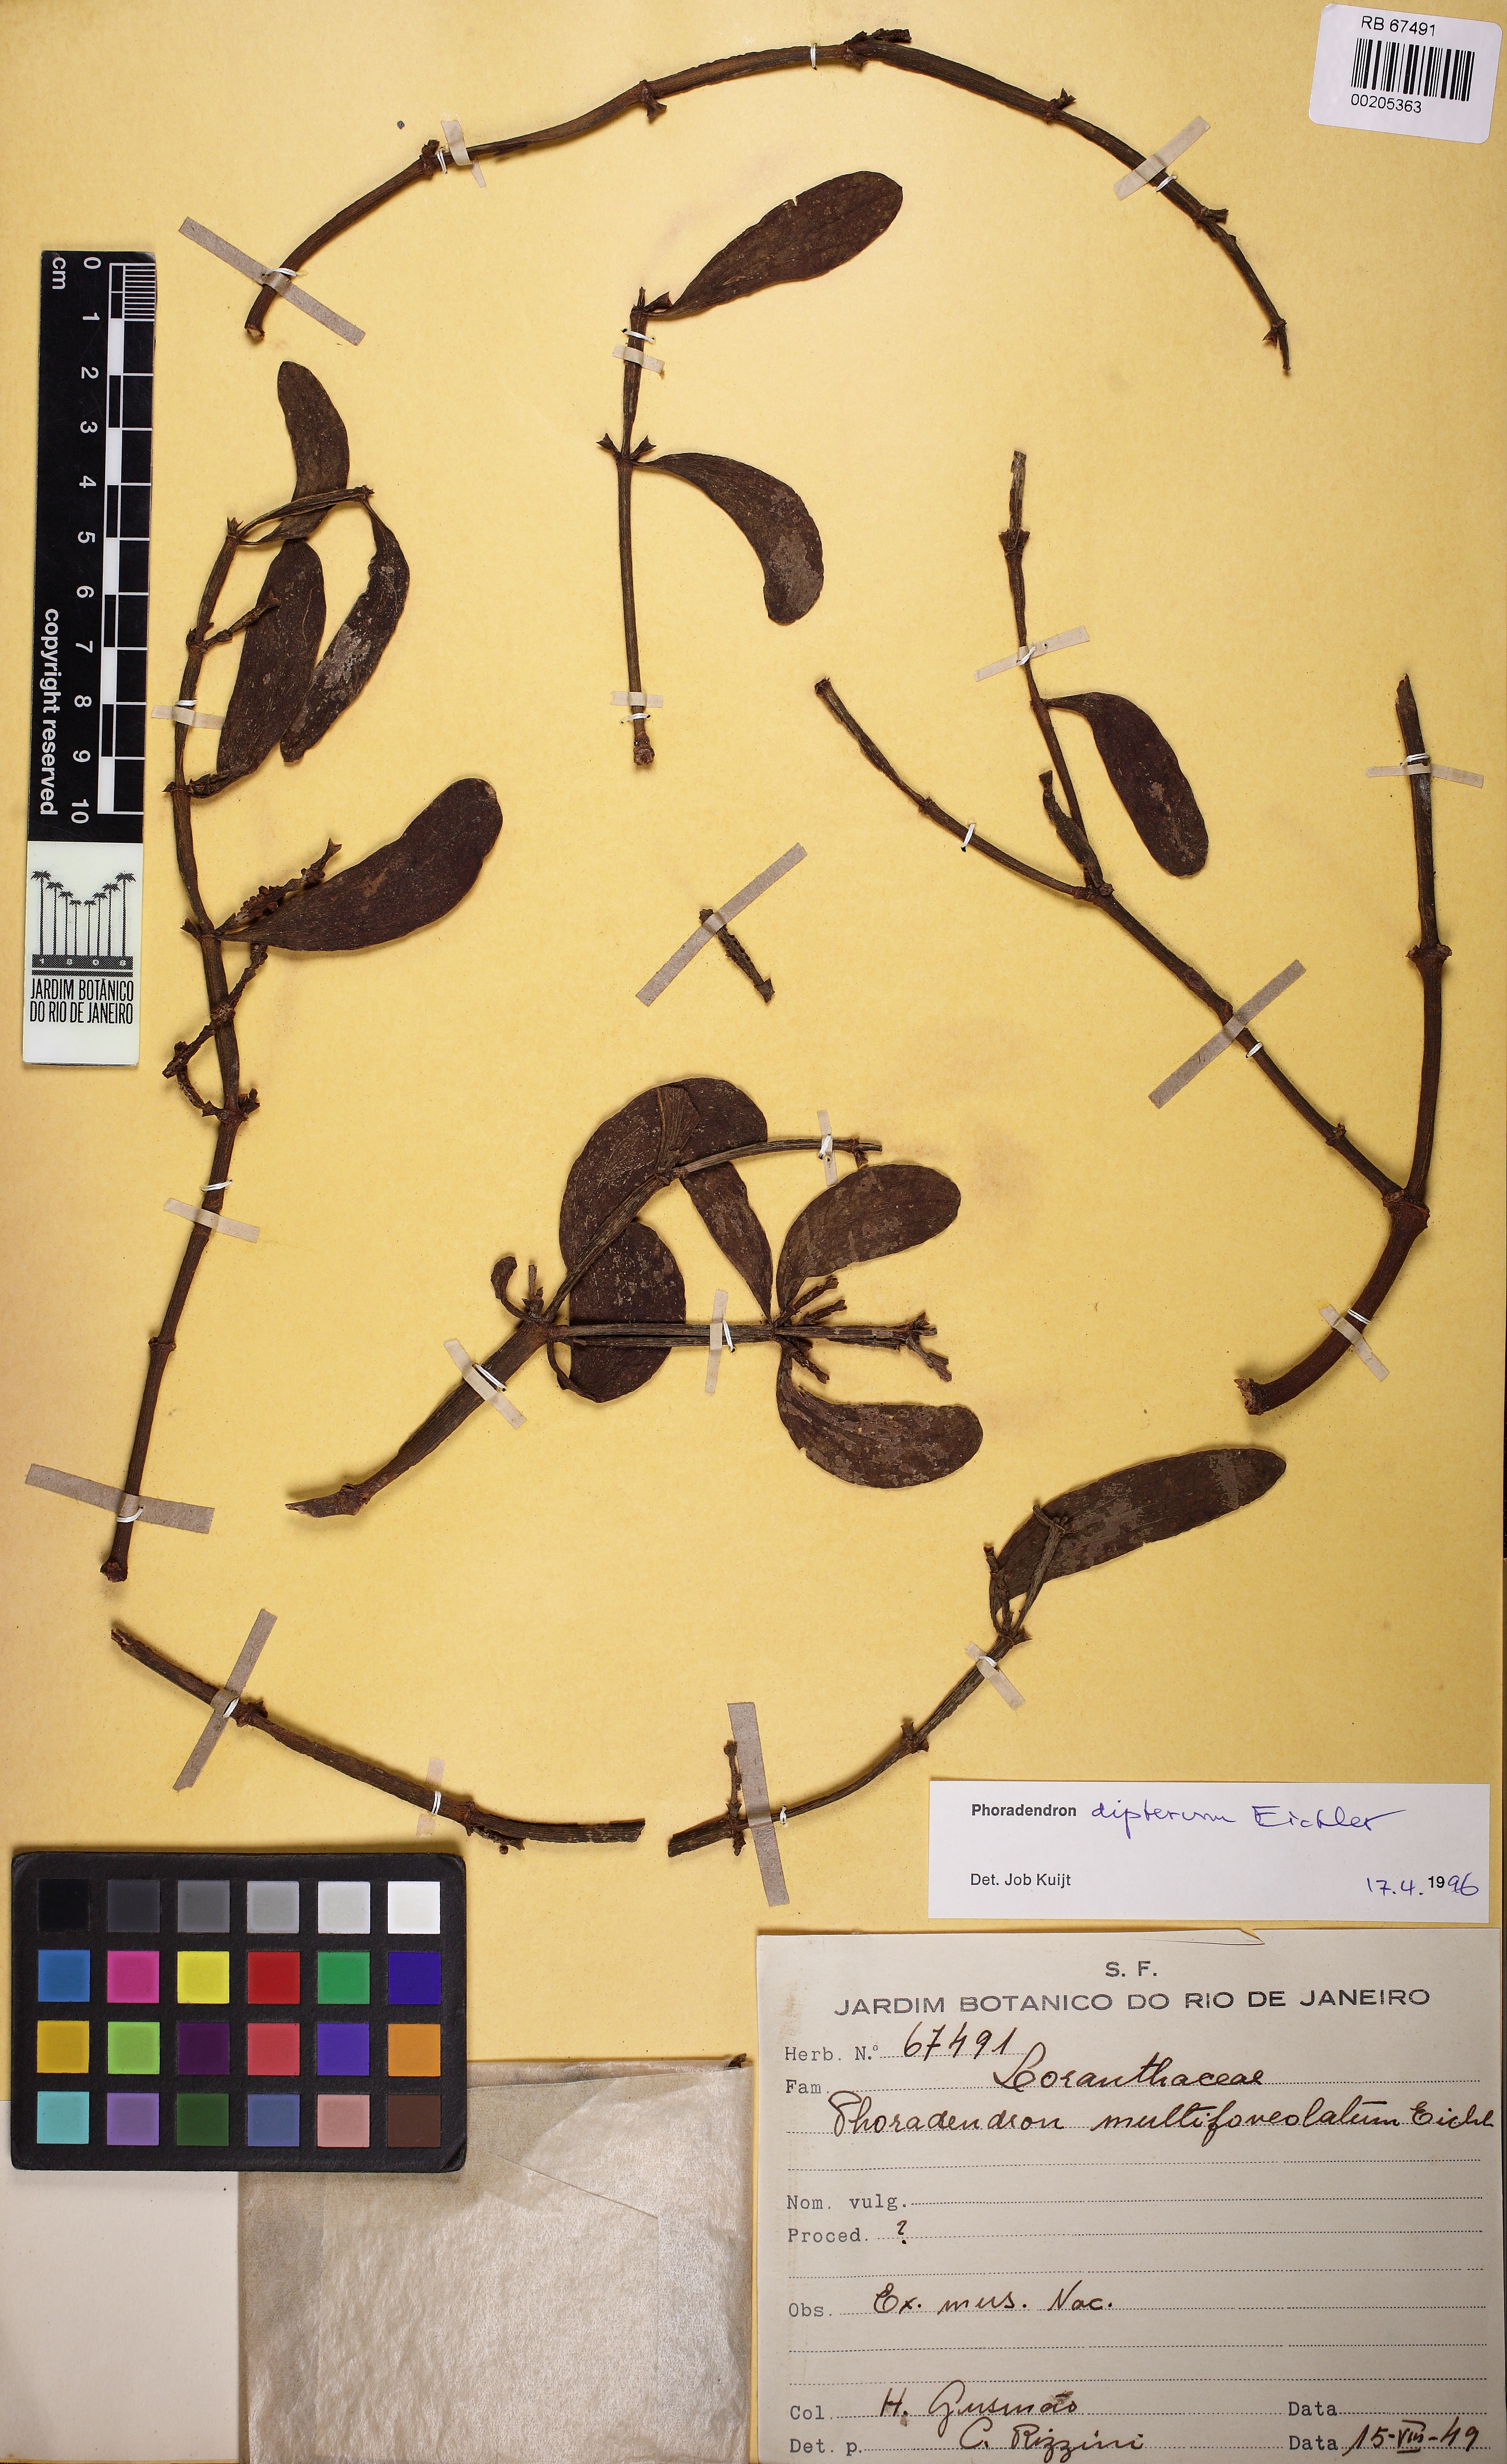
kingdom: Plantae
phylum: Tracheophyta
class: Magnoliopsida
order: Santalales
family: Viscaceae
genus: Phoradendron
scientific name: Phoradendron dipterum
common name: Fourpart mistletoe
